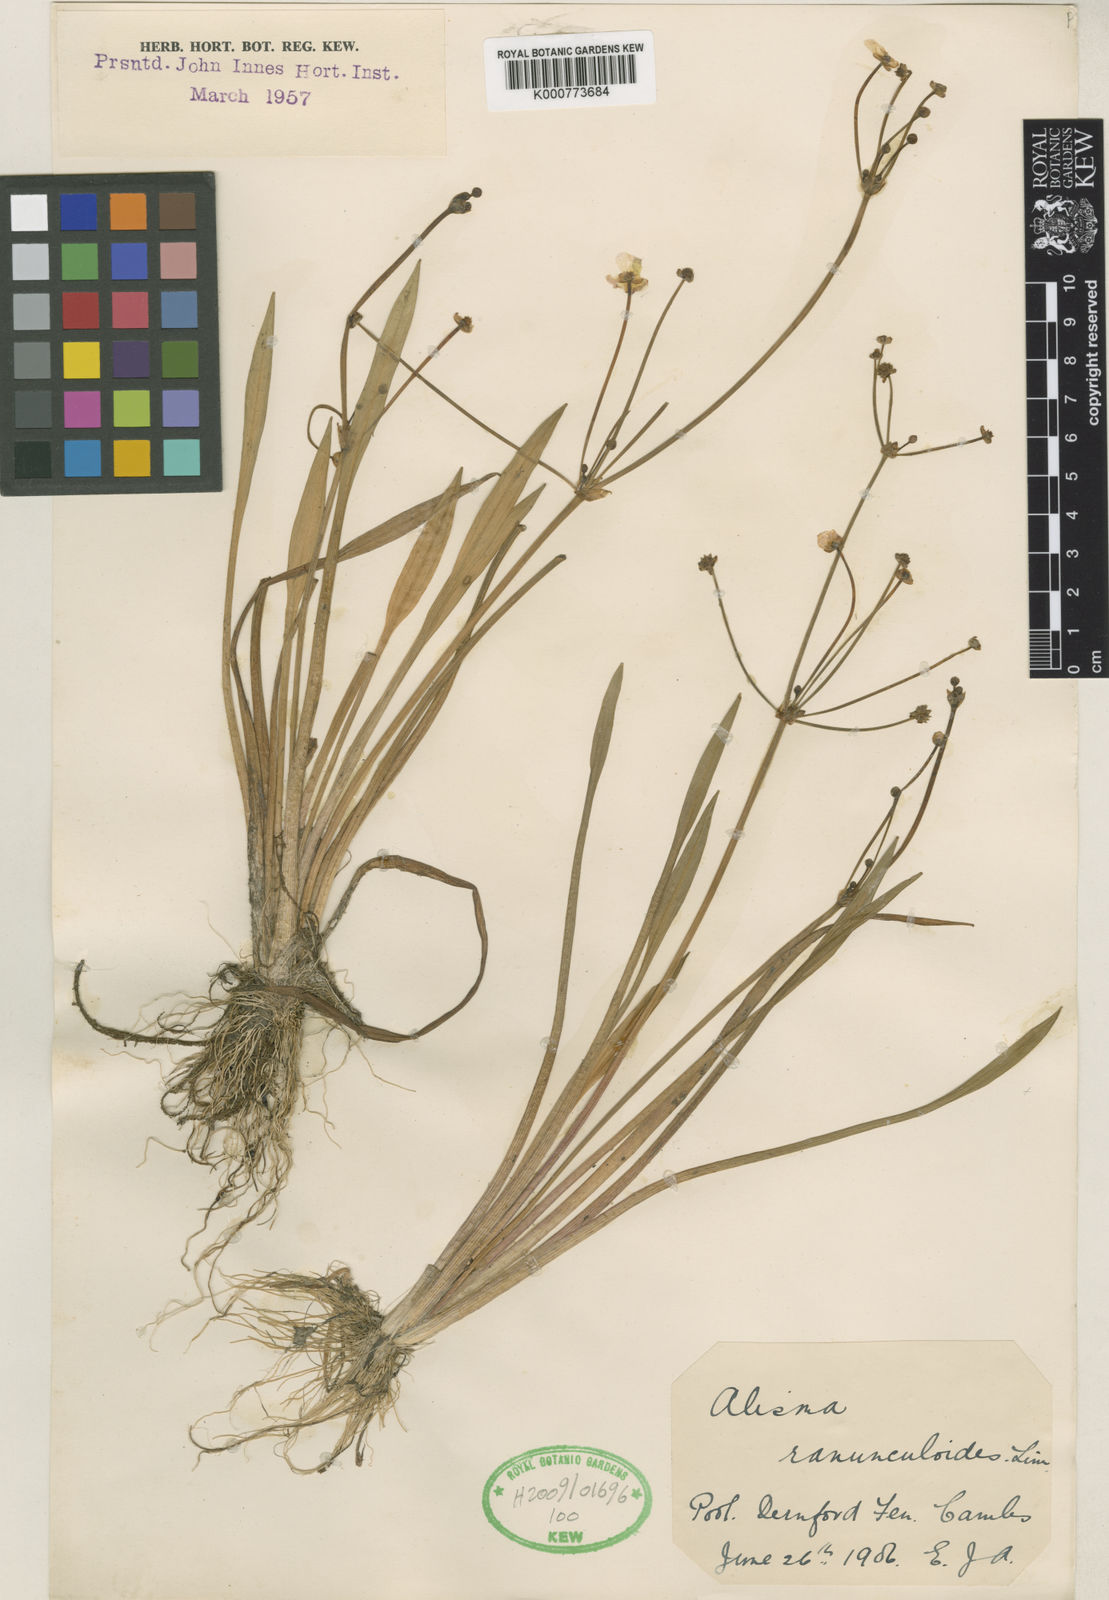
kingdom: Plantae
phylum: Tracheophyta
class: Liliopsida
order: Alismatales
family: Alismataceae
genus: Baldellia
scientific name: Baldellia ranunculoides
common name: Lesser water-plantain
